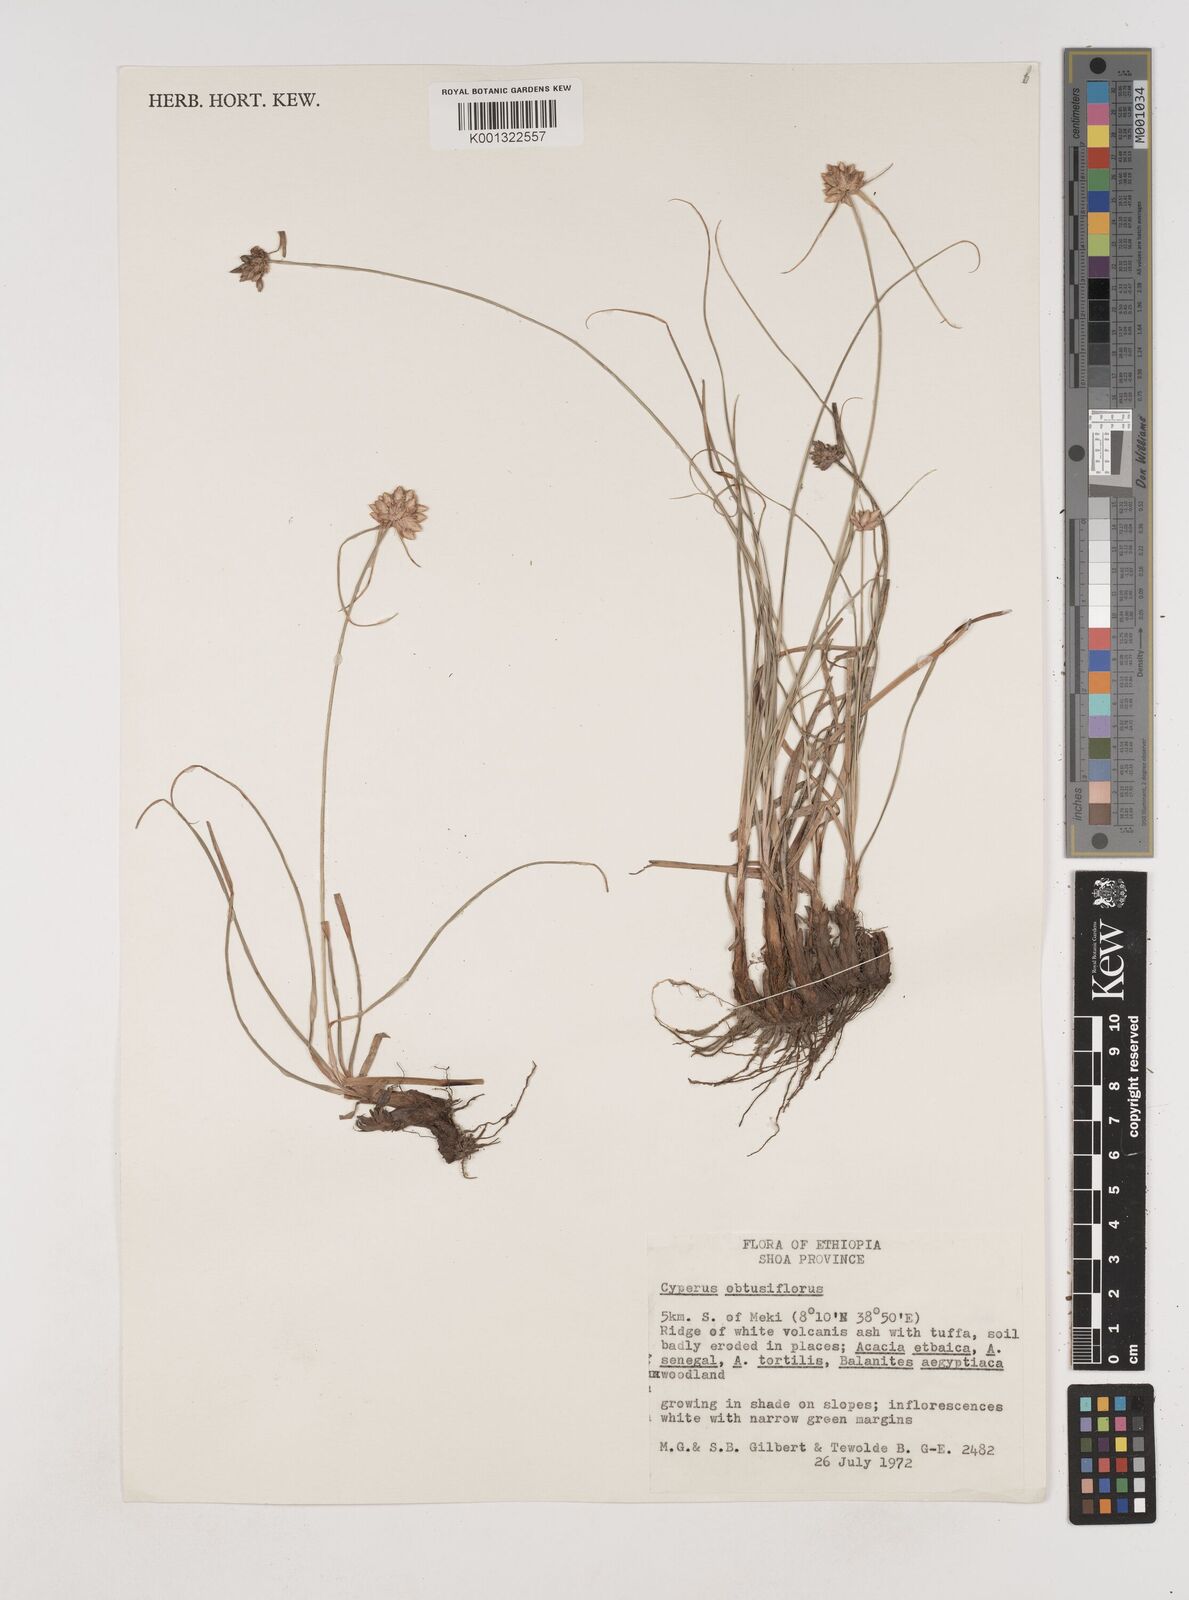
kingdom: Plantae
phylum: Tracheophyta
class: Liliopsida
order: Poales
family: Cyperaceae
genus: Cyperus
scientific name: Cyperus niveus
